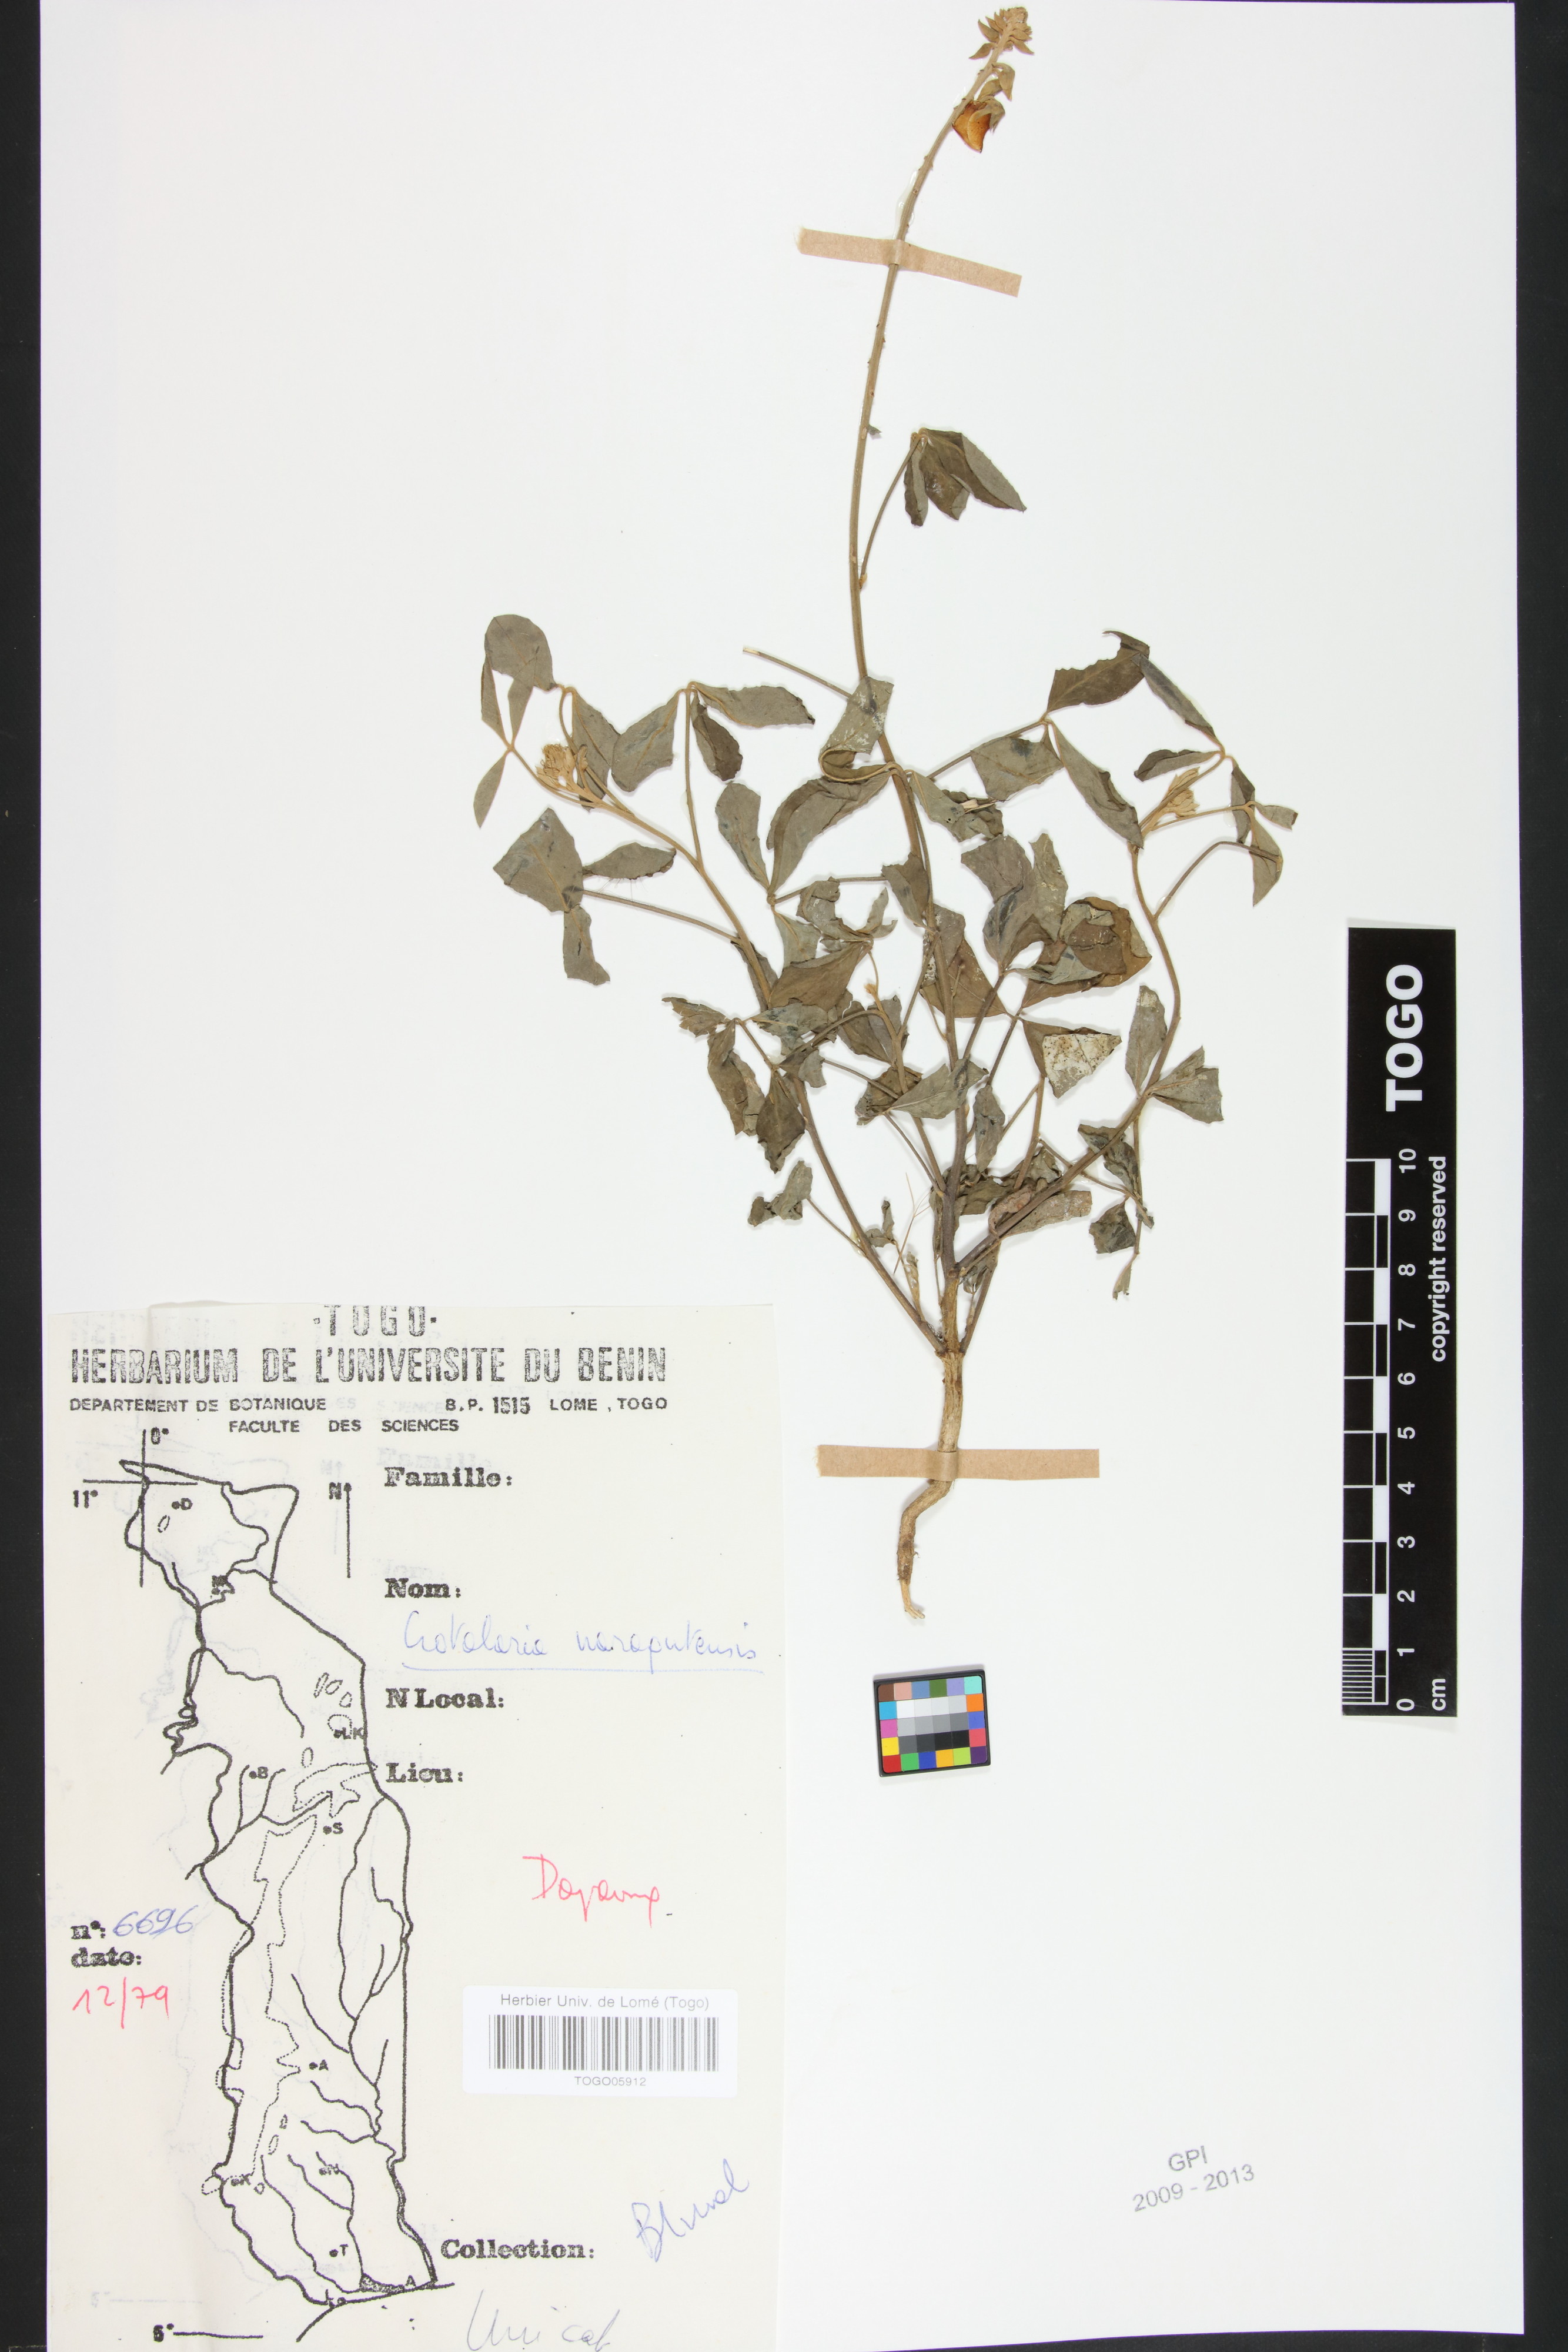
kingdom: Plantae
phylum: Tracheophyta
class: Magnoliopsida
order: Fabales
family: Fabaceae
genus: Crotalaria
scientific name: Crotalaria naragutensis
